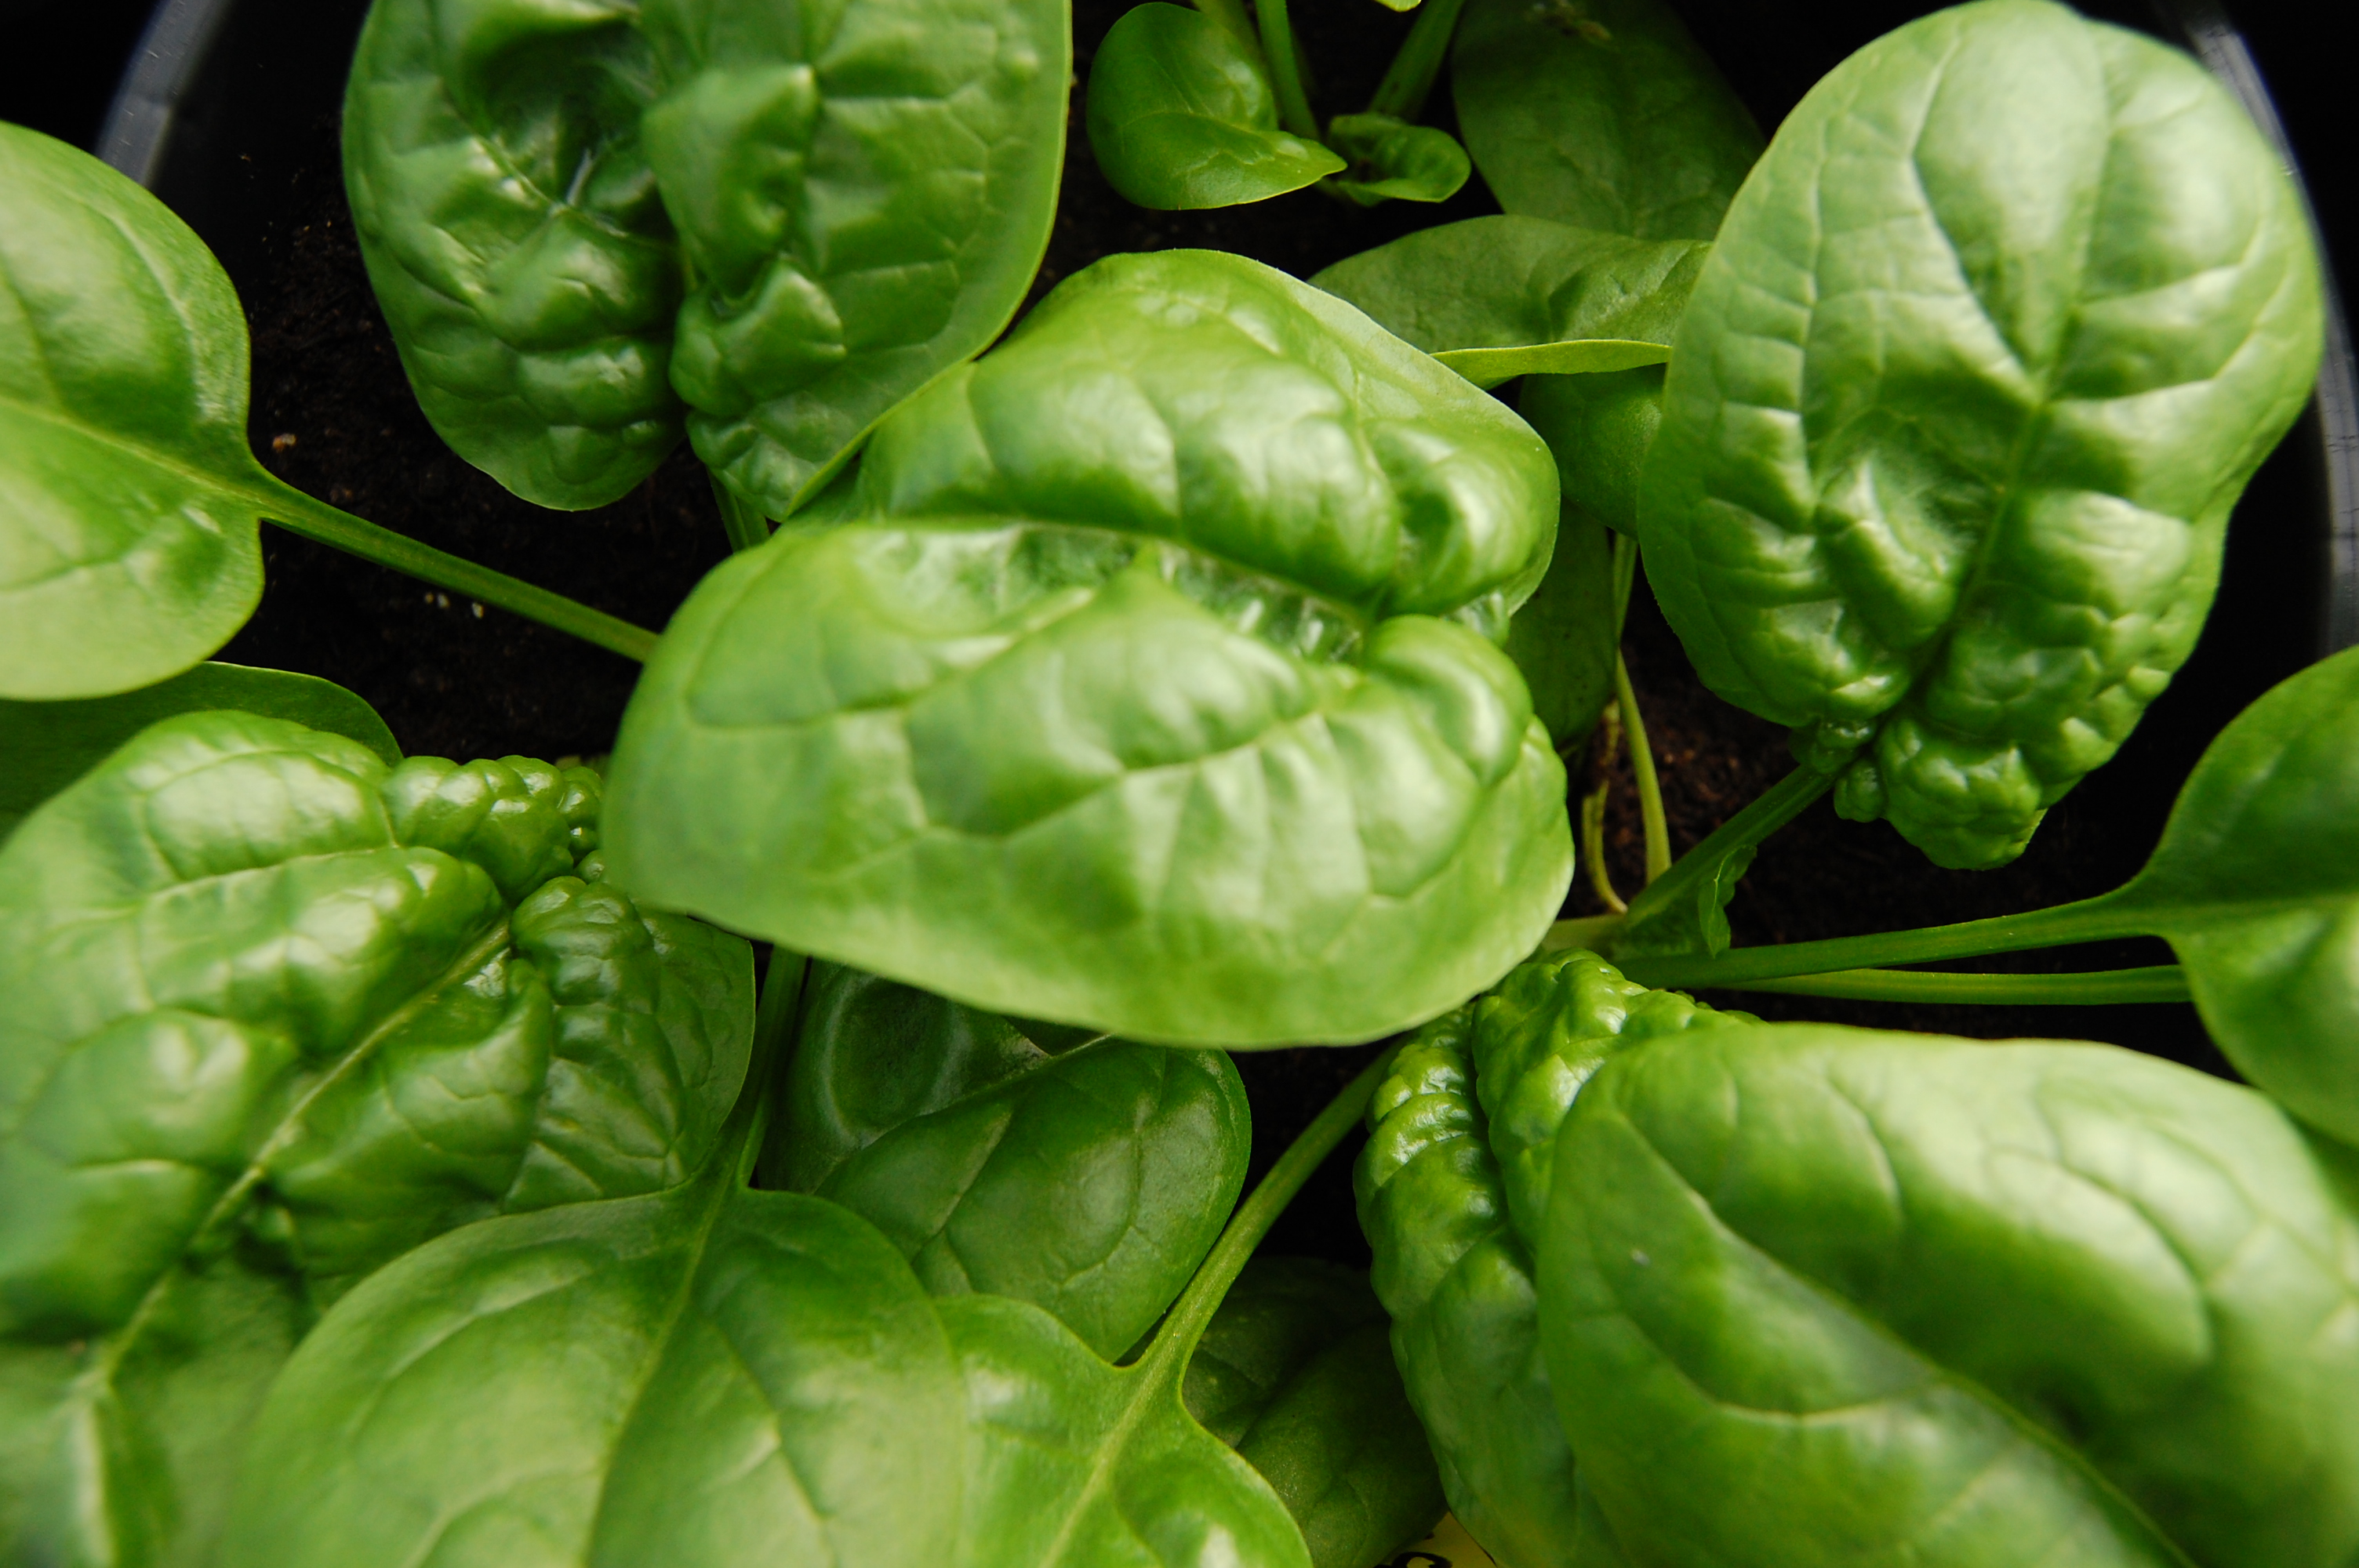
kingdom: Plantae
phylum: Tracheophyta
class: Magnoliopsida
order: Caryophyllales
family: Amaranthaceae
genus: Spinacia
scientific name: Spinacia oleracea
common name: Spinach
